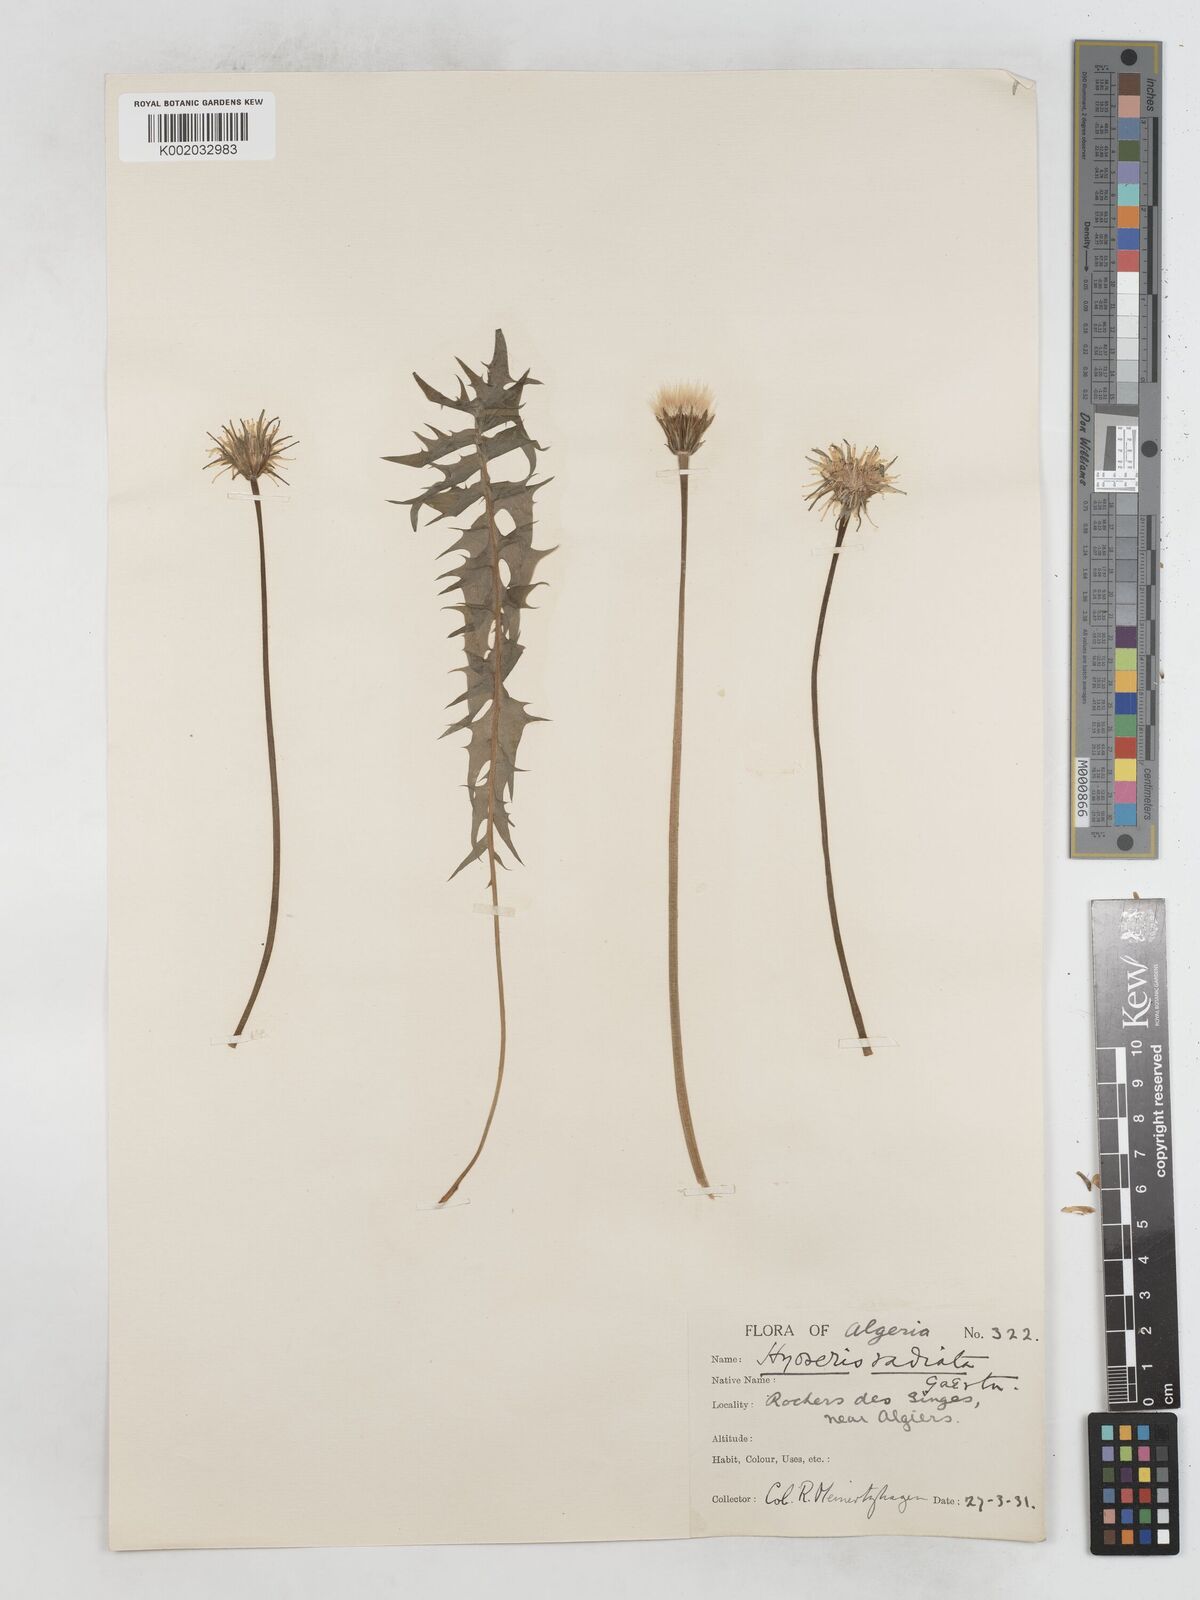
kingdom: Plantae
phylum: Tracheophyta
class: Magnoliopsida
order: Asterales
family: Asteraceae
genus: Hyoseris
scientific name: Hyoseris radiata
